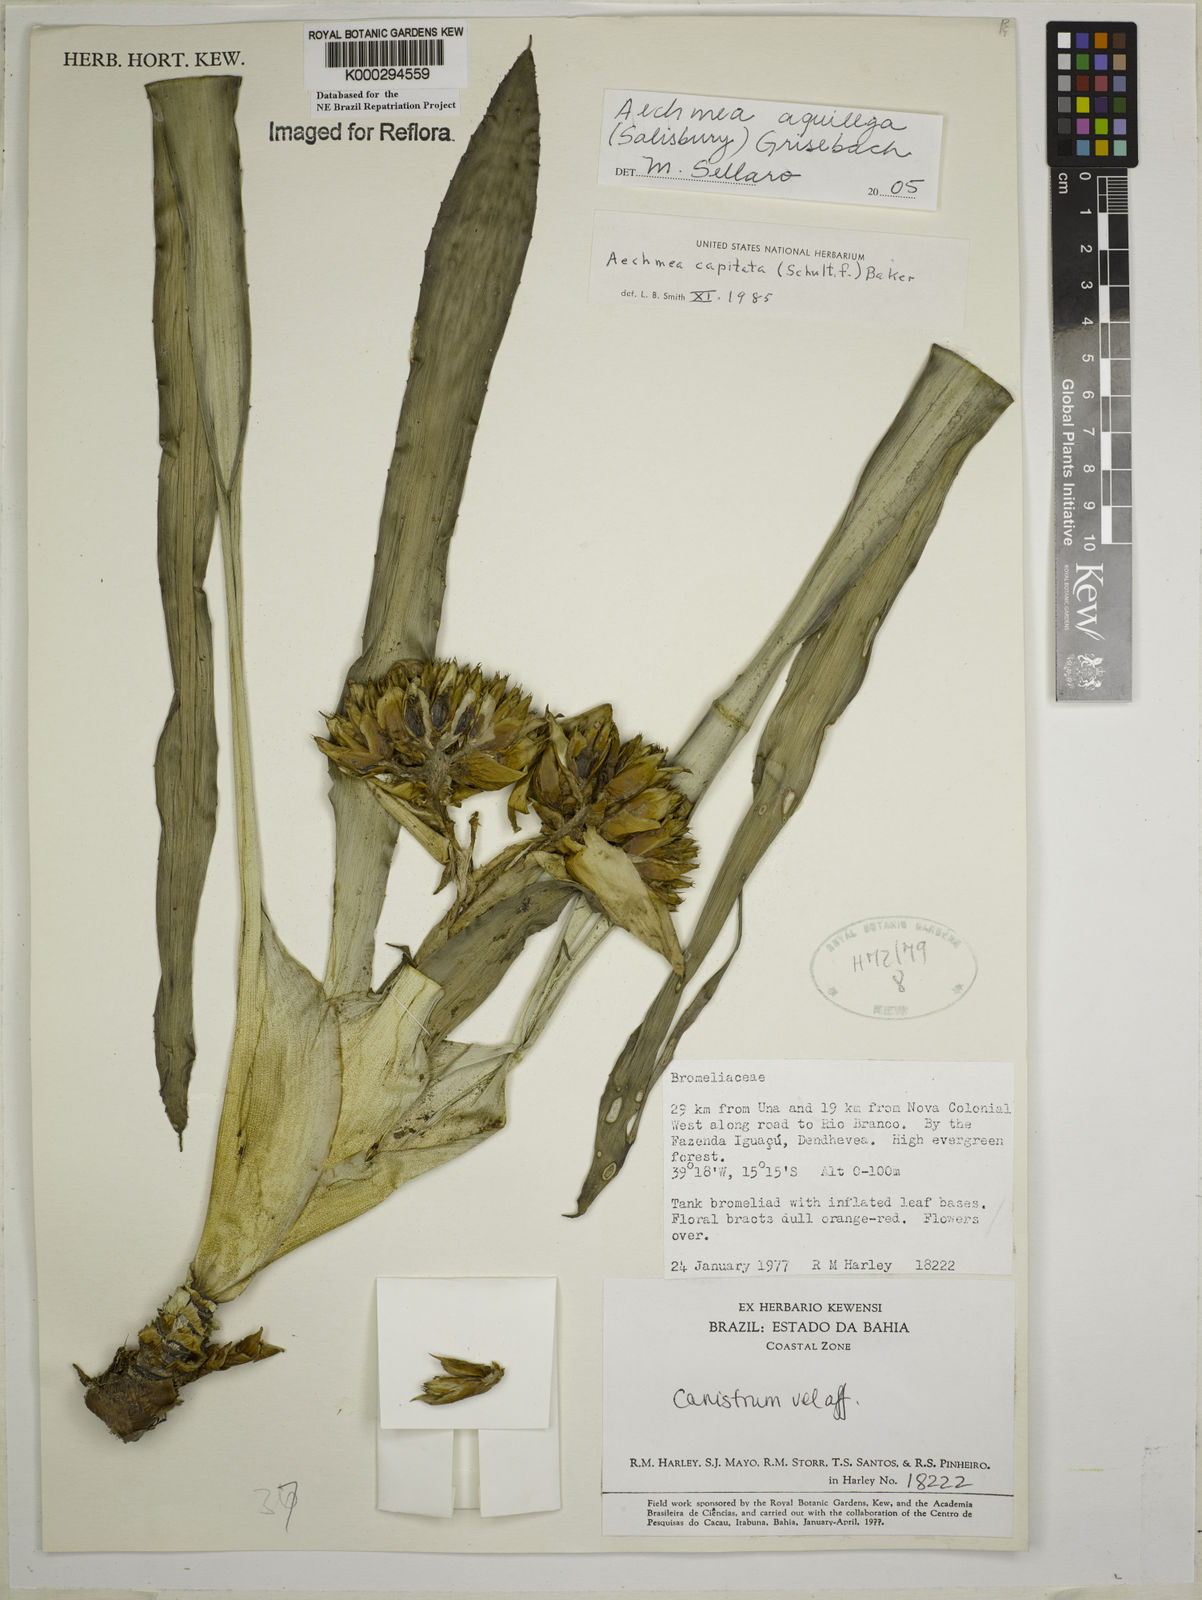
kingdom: Plantae
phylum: Tracheophyta
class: Liliopsida
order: Poales
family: Bromeliaceae
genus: Aechmea
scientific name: Aechmea aquilega
